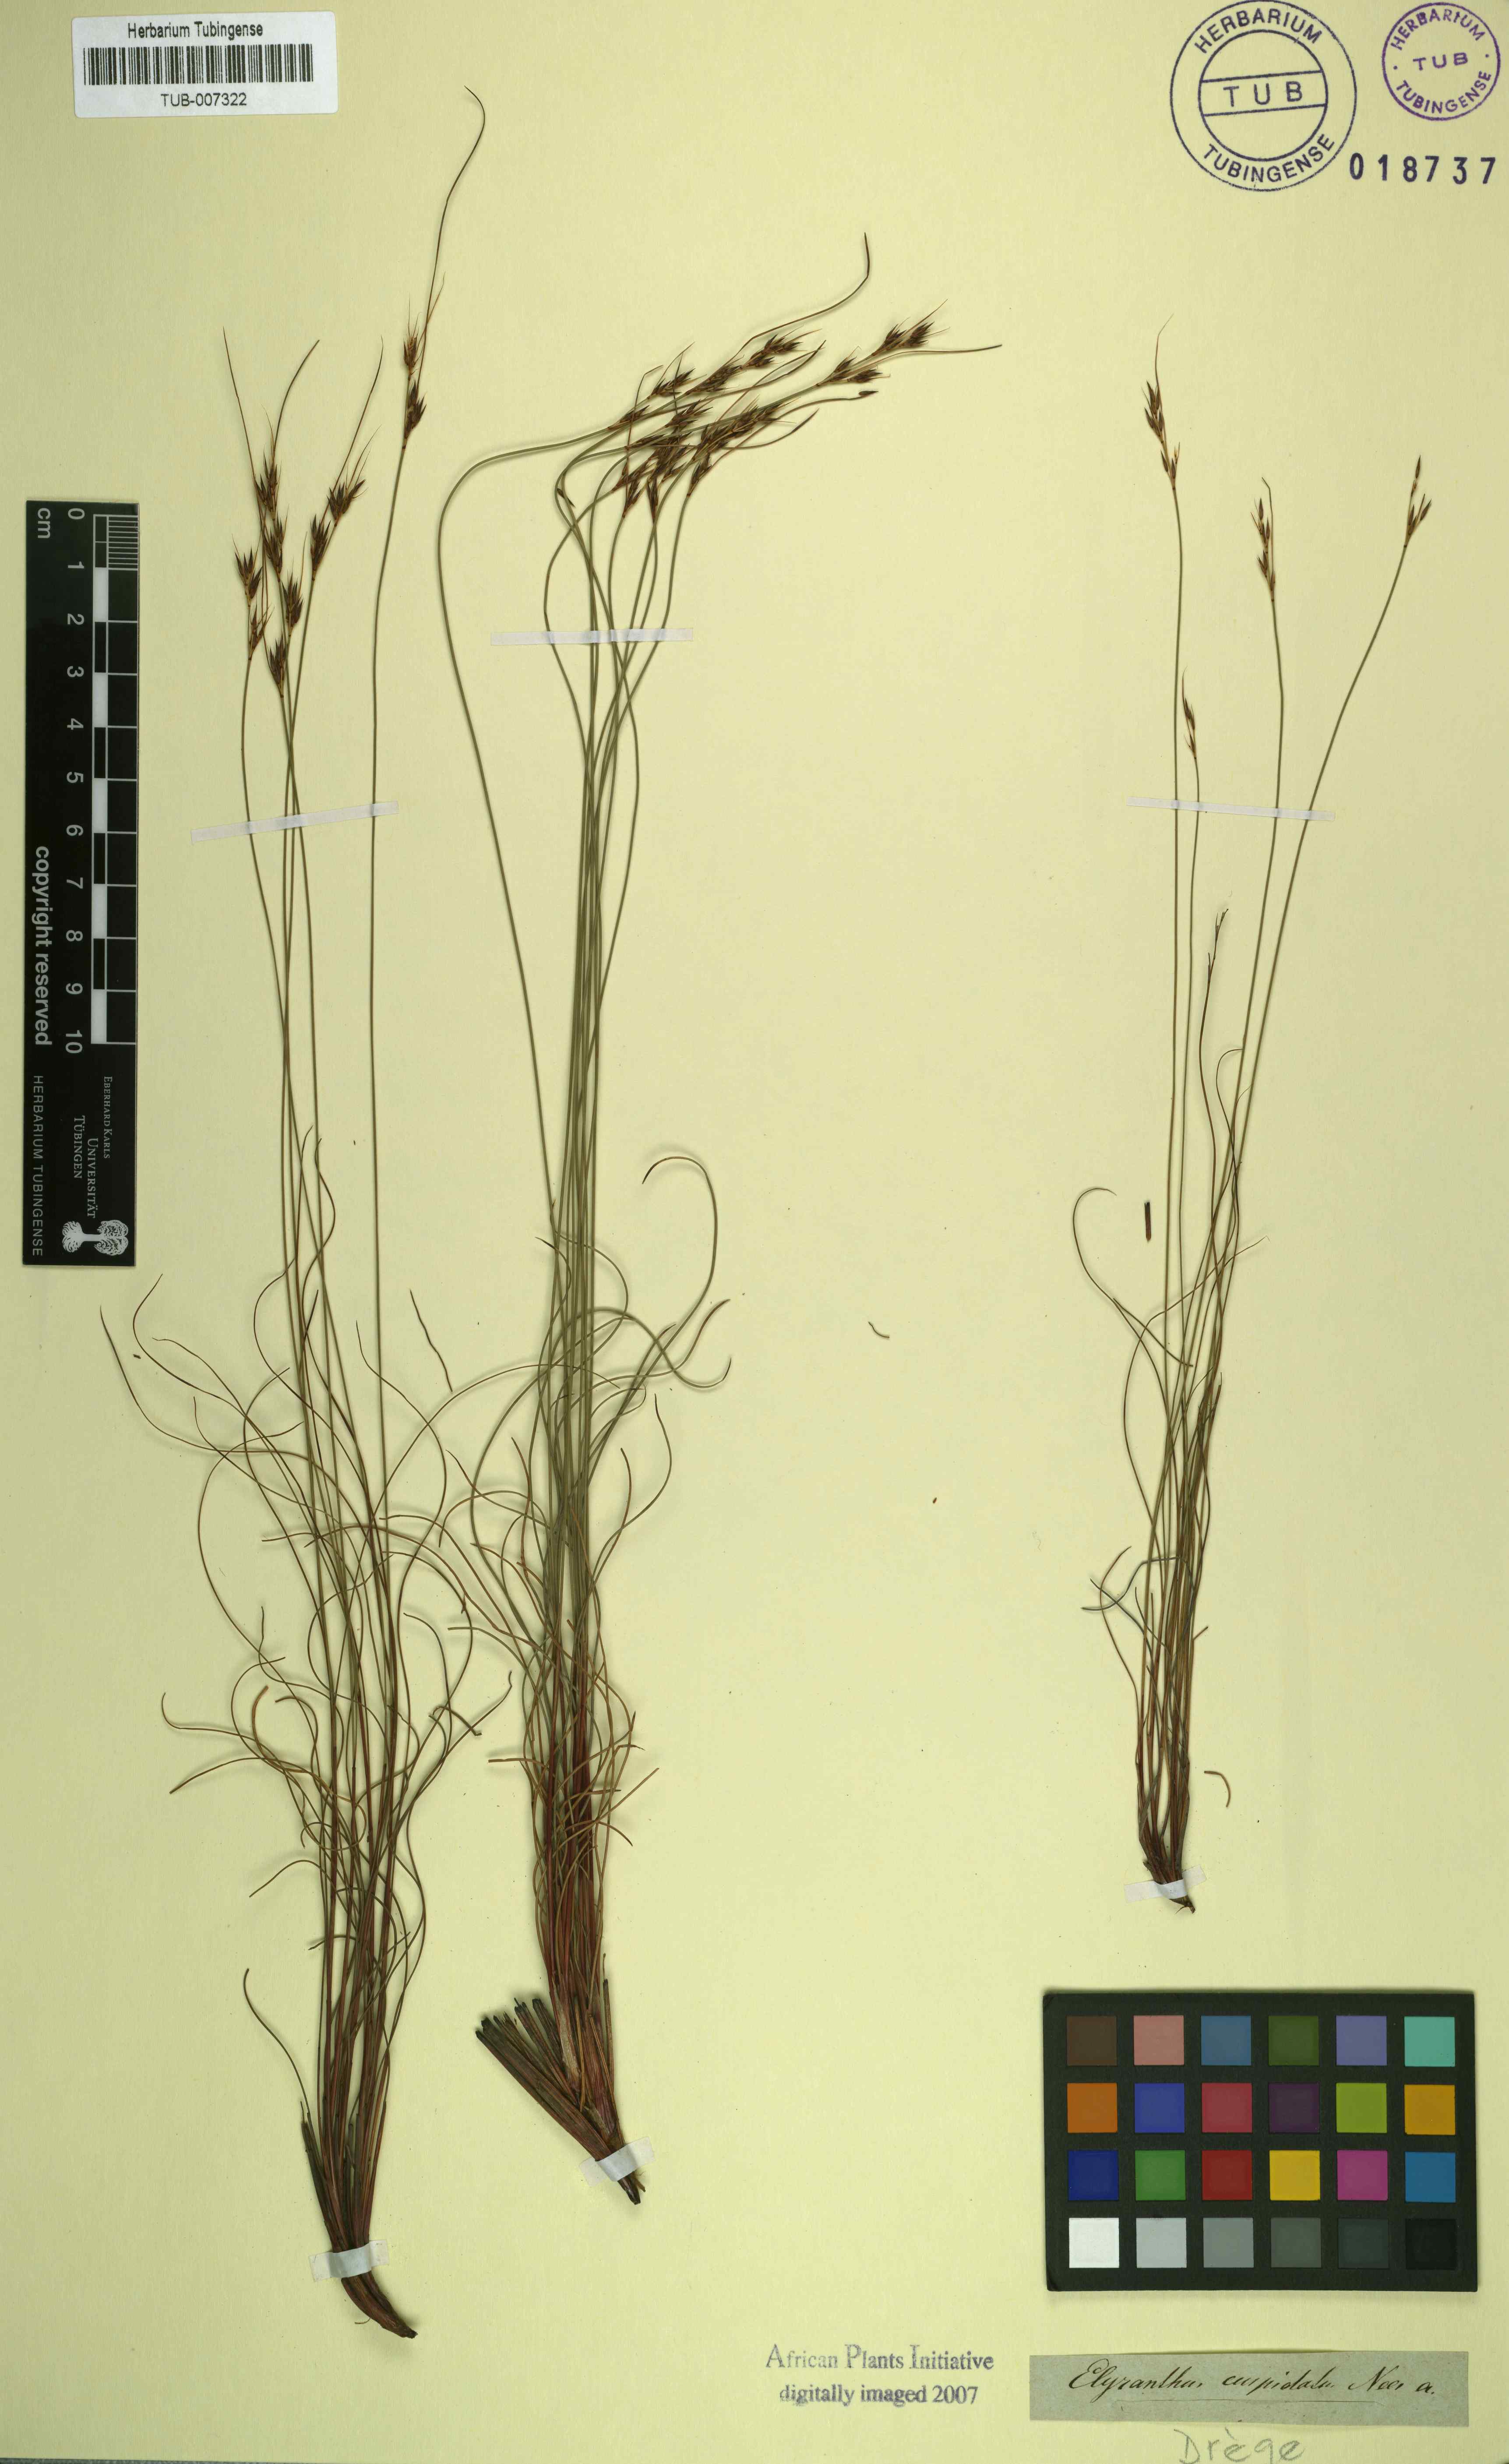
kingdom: Plantae
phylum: Tracheophyta
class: Liliopsida
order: Poales
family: Cyperaceae
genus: Schoenus
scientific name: Schoenus cuspidatus
